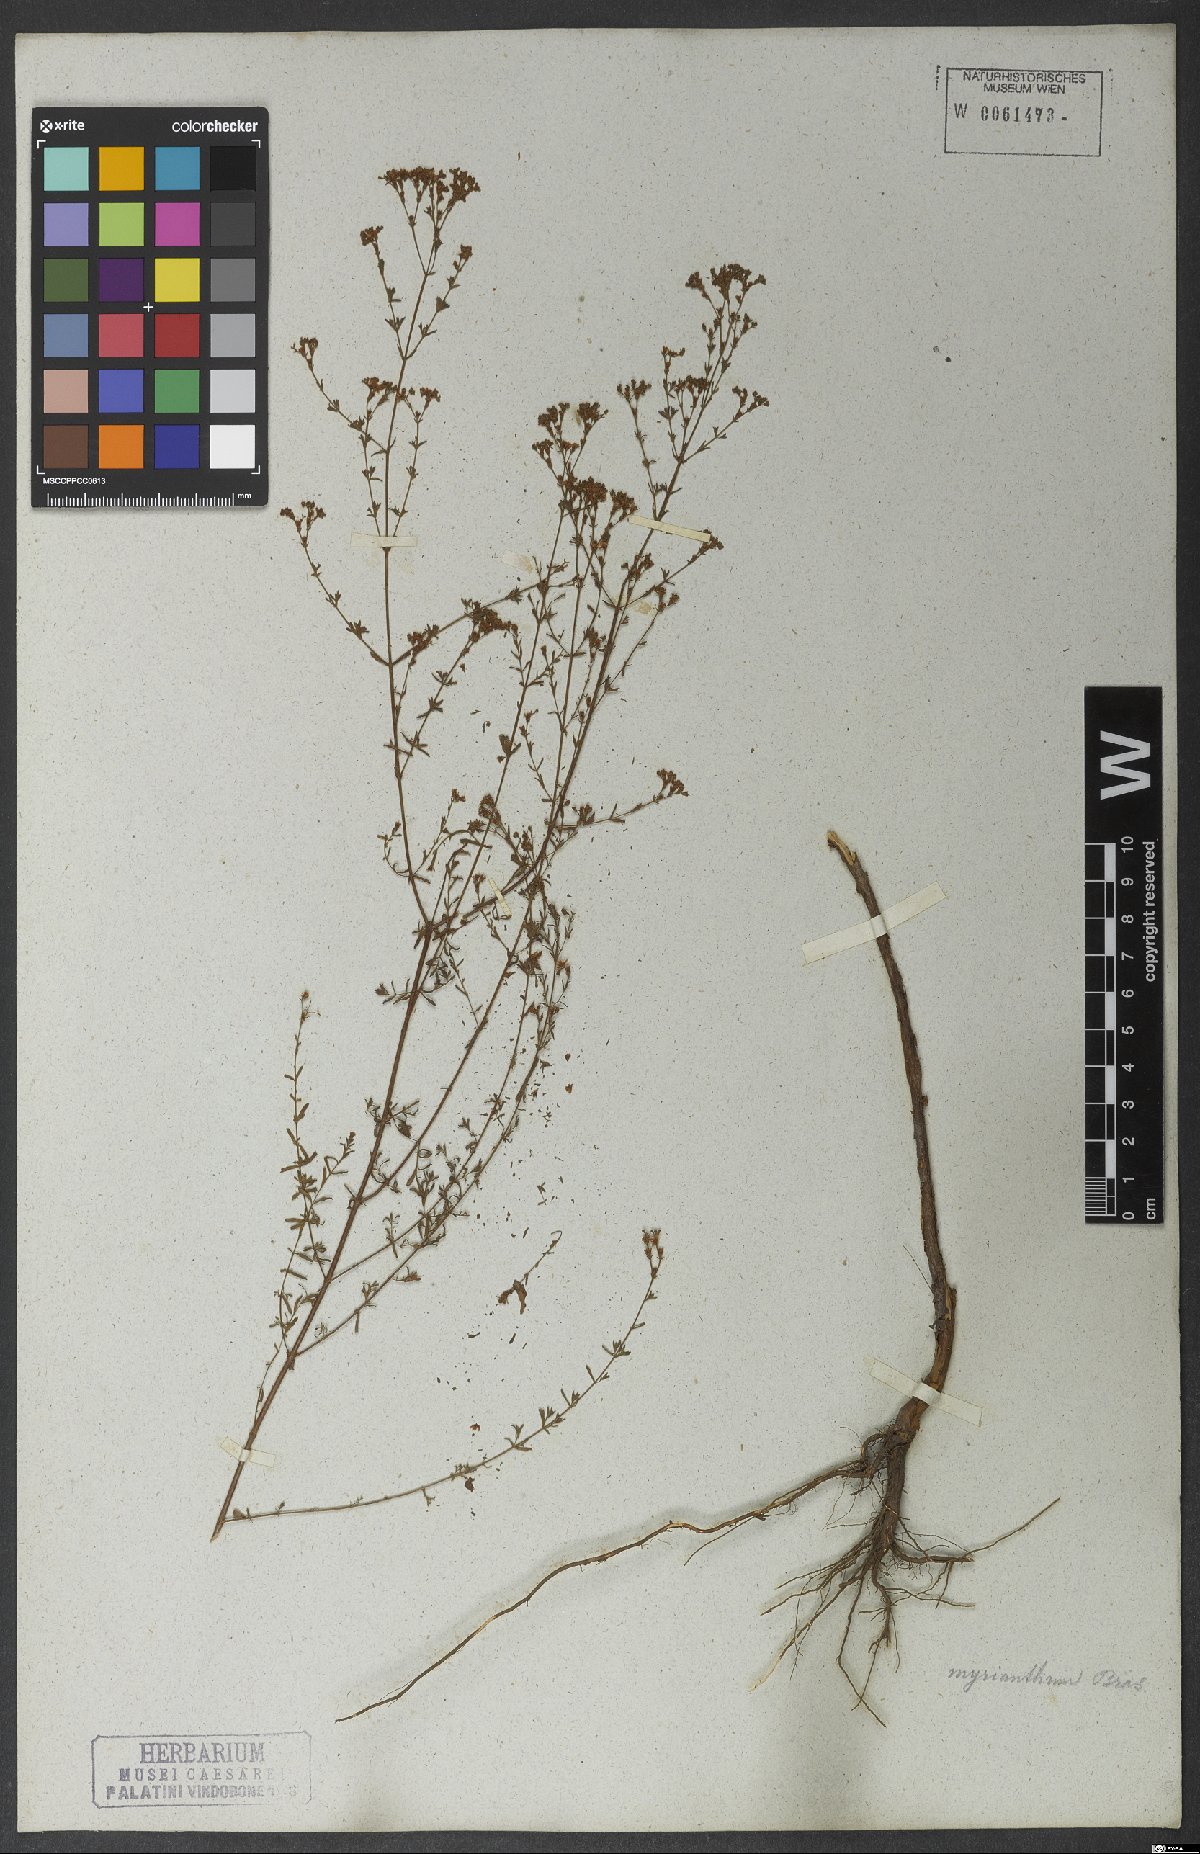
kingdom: Plantae
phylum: Tracheophyta
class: Magnoliopsida
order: Malpighiales
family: Hypericaceae
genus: Hypericum
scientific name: Hypericum myrianthum
